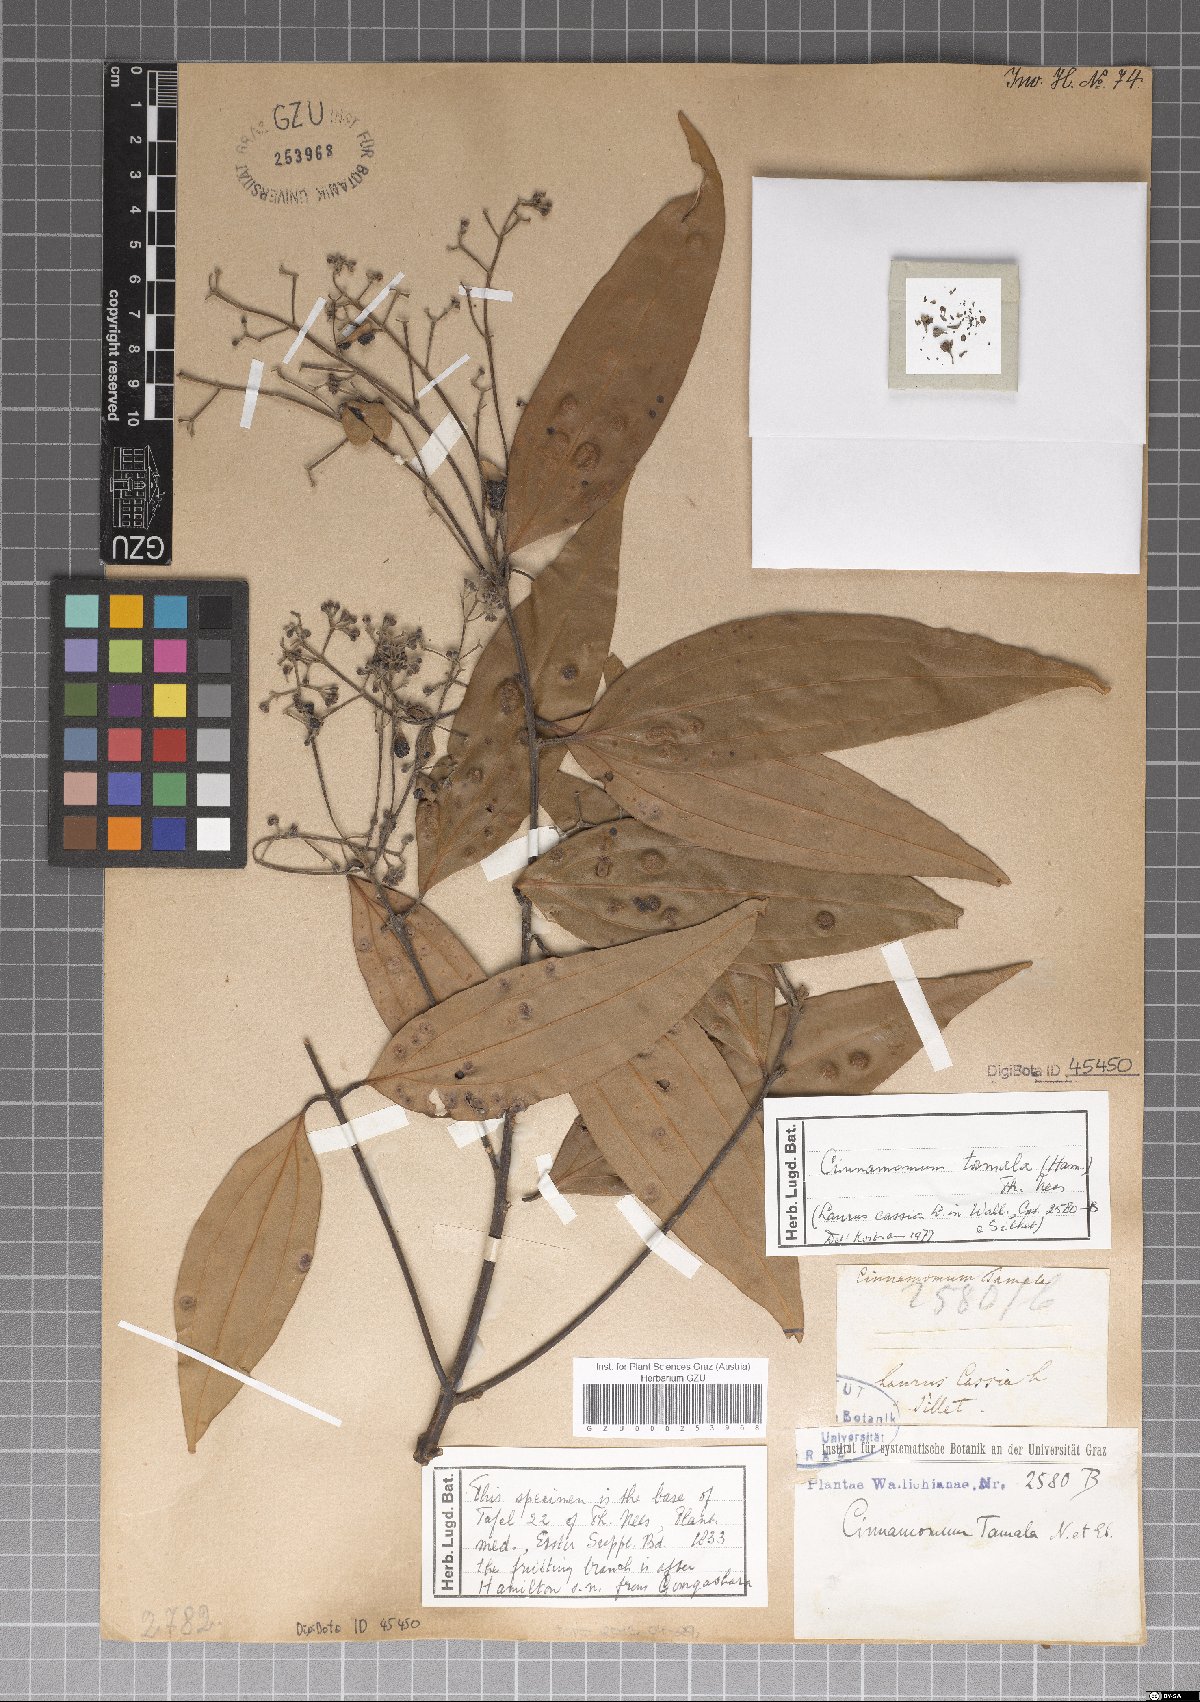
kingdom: Plantae
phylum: Tracheophyta
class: Magnoliopsida
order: Laurales
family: Lauraceae
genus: Cinnamomum
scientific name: Cinnamomum tamala
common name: Indian bay leaves
